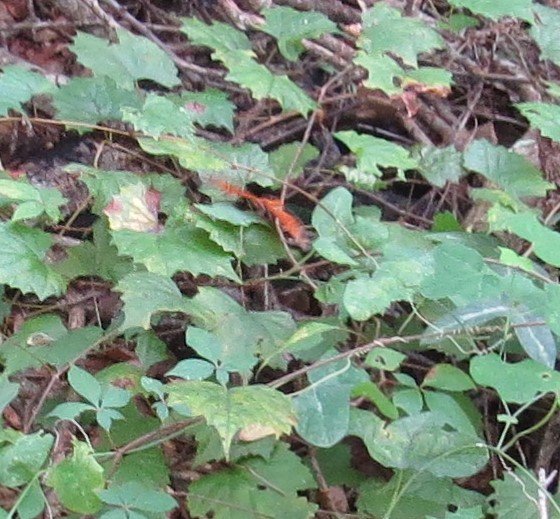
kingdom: Animalia
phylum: Arthropoda
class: Insecta
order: Lepidoptera
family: Nymphalidae
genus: Dione
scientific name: Dione vanillae
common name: Gulf Fritillary
